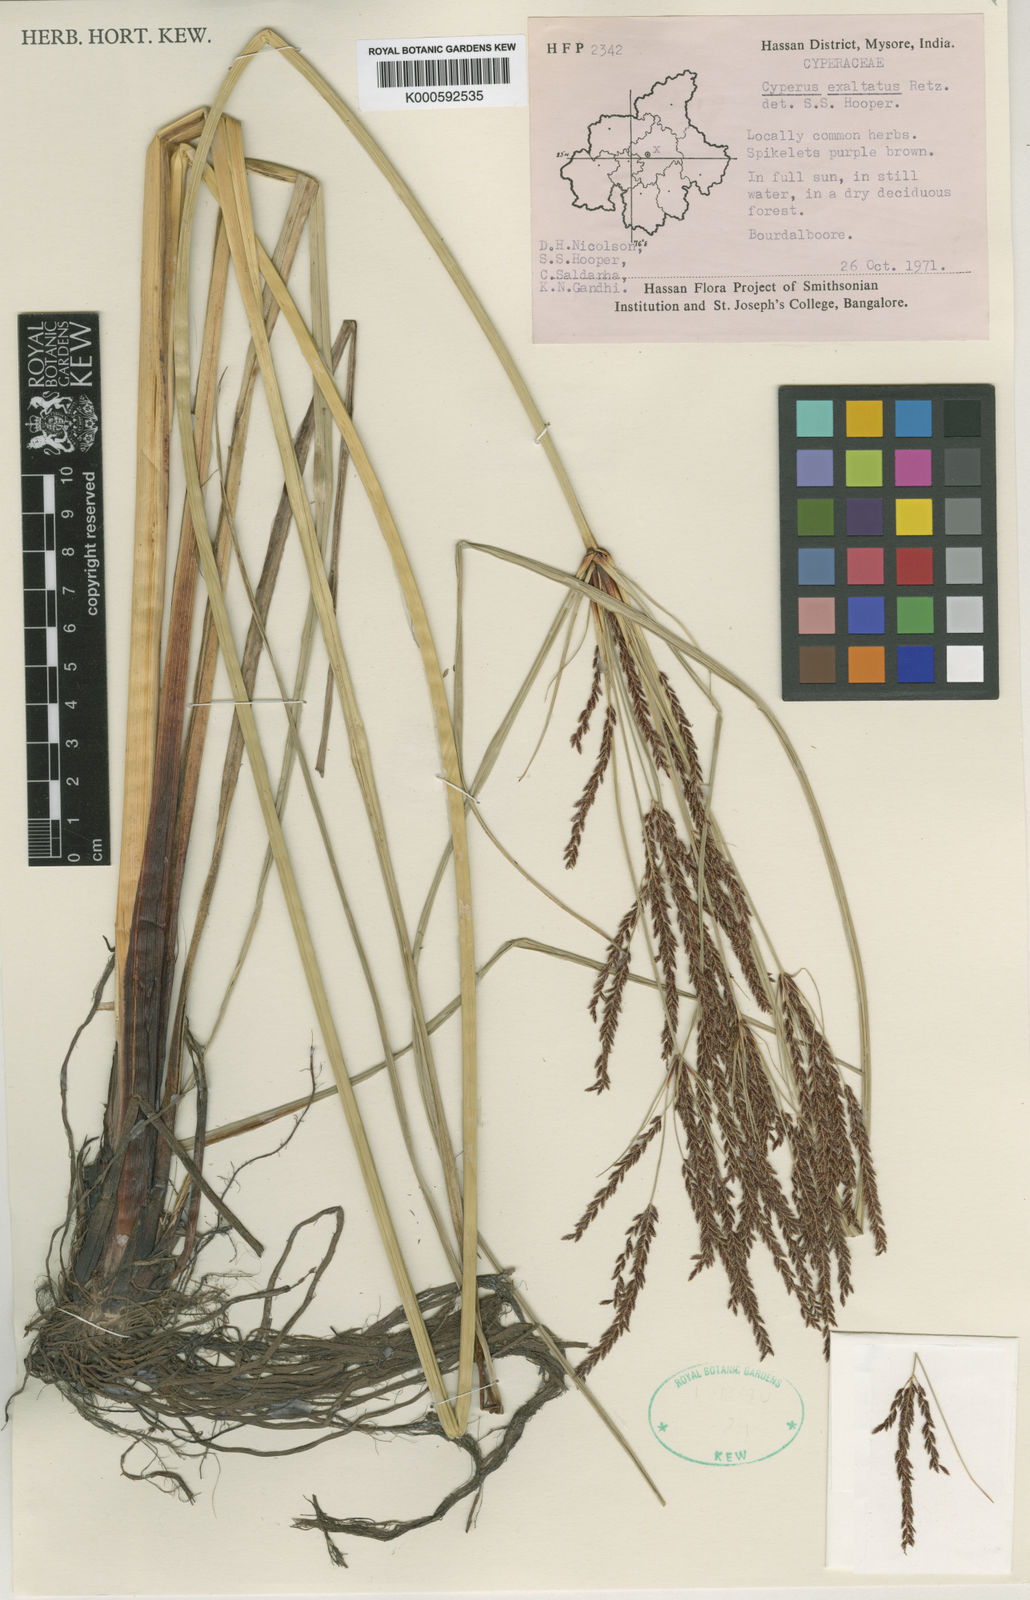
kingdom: Plantae
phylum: Tracheophyta
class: Liliopsida
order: Poales
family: Cyperaceae
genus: Cyperus
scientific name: Cyperus exaltatus
